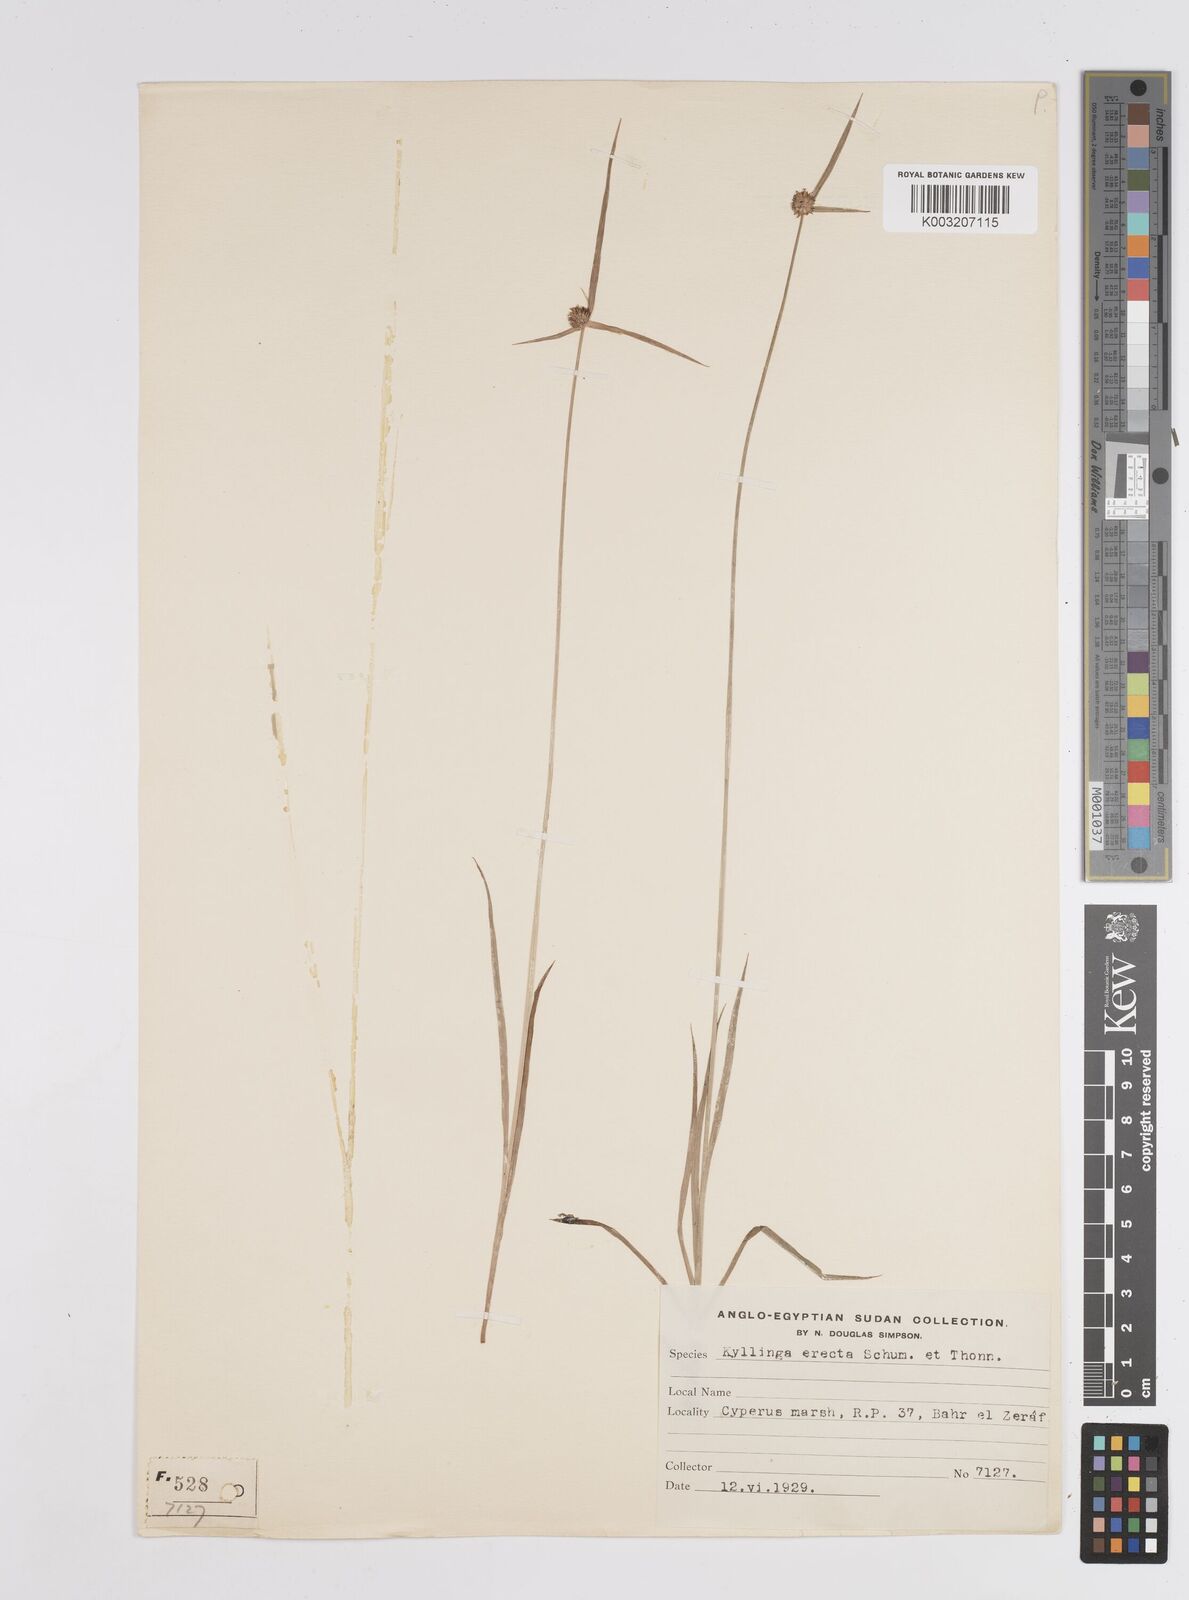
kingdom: Plantae
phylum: Tracheophyta
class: Liliopsida
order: Poales
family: Cyperaceae
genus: Cyperus
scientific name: Cyperus
